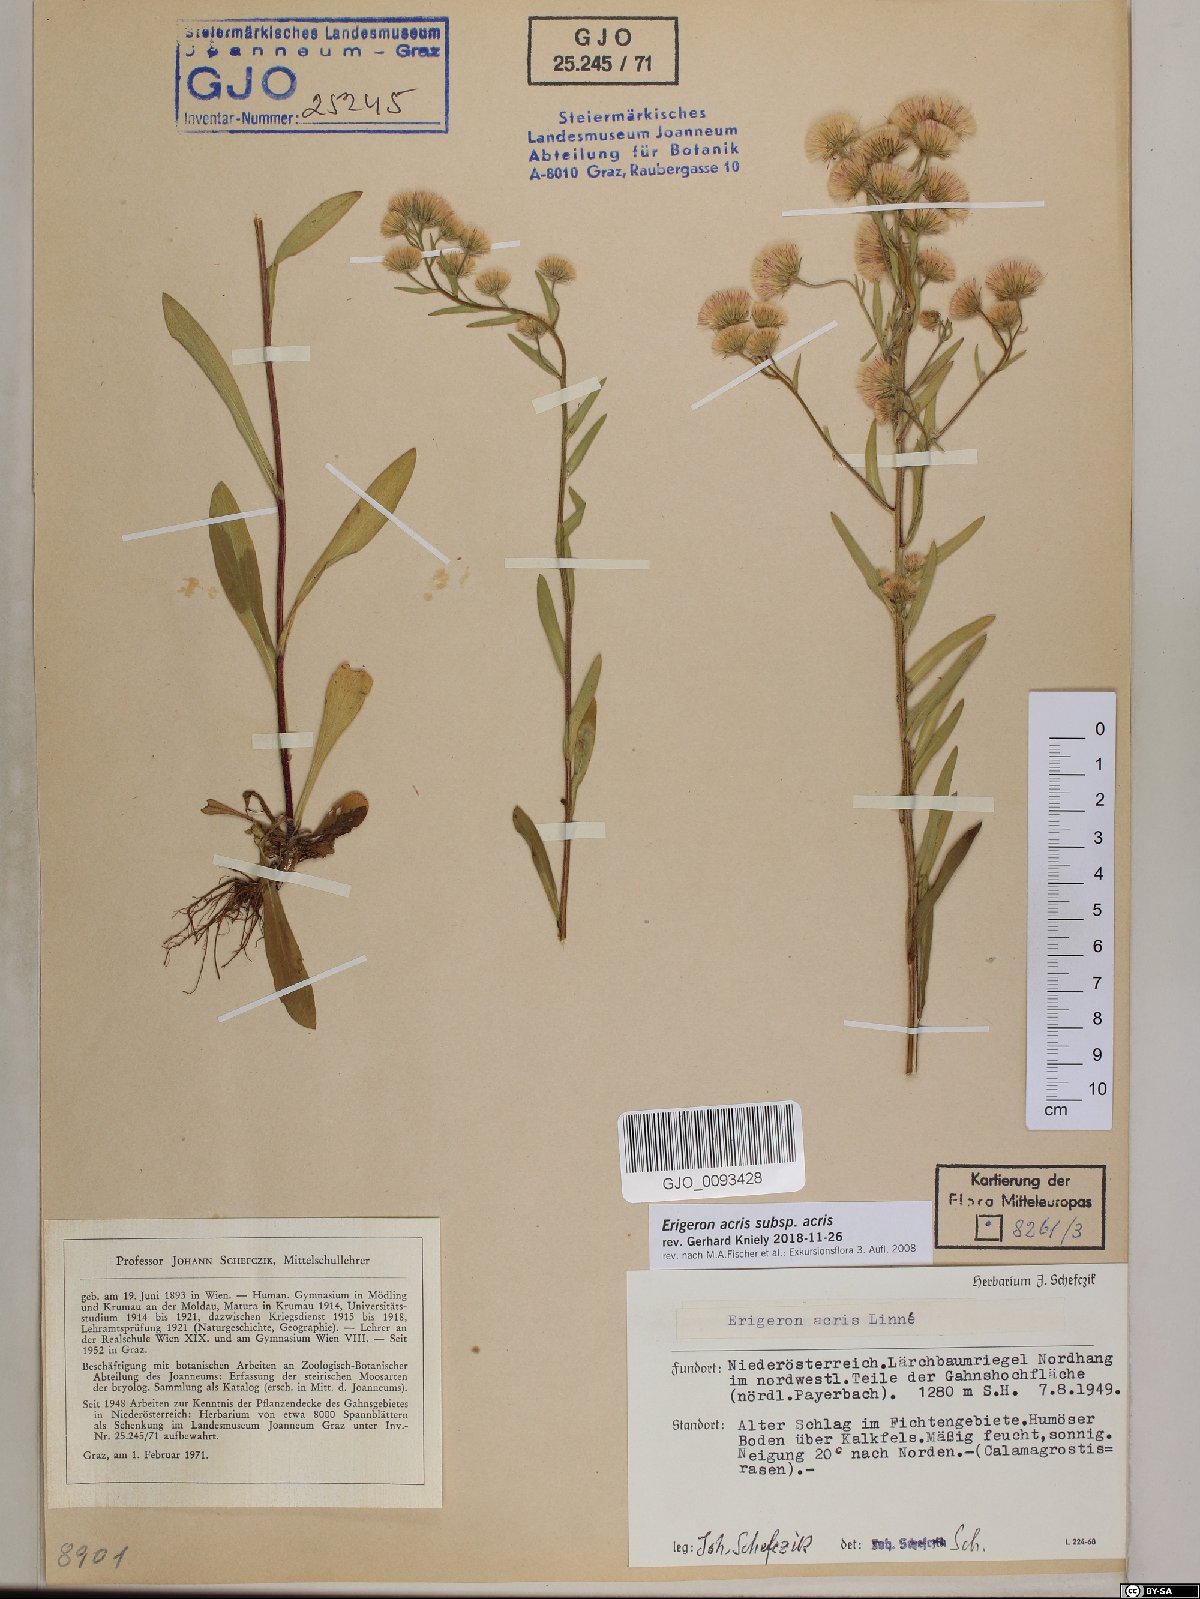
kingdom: Plantae
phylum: Tracheophyta
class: Magnoliopsida
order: Asterales
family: Asteraceae
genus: Erigeron
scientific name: Erigeron acris
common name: Blue fleabane
